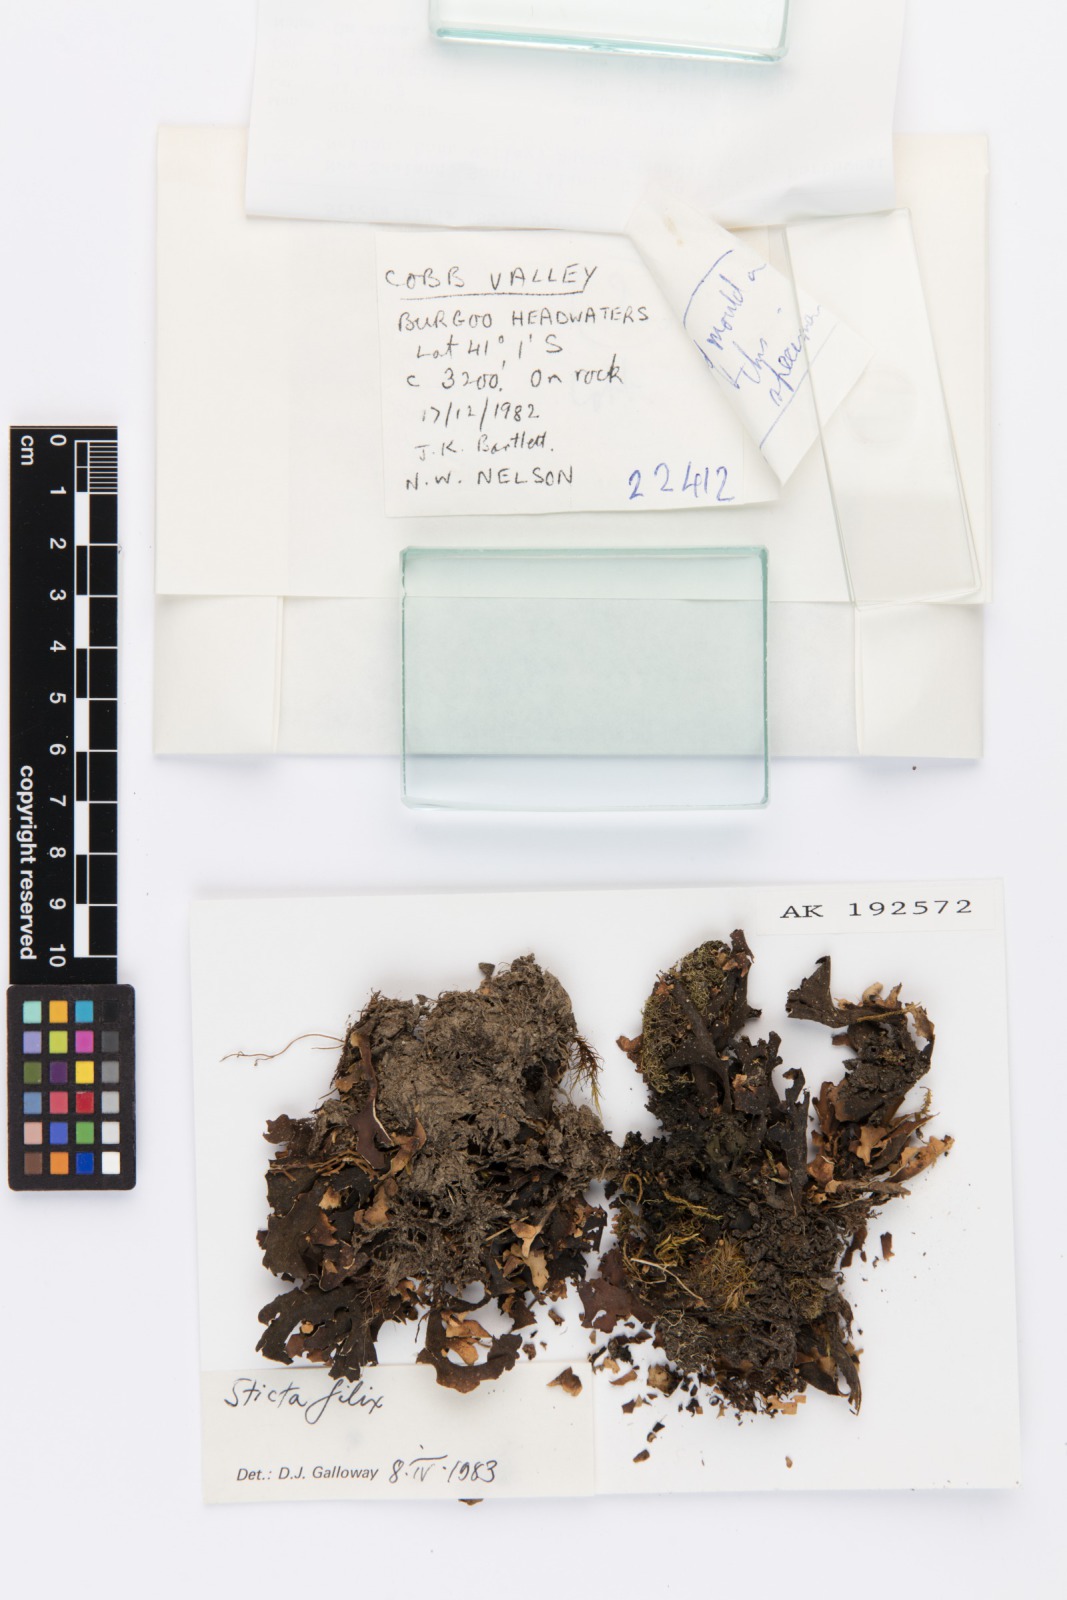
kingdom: Fungi
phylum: Ascomycota
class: Lecanoromycetes
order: Peltigerales
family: Lobariaceae
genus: Sticta
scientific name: Sticta filix
